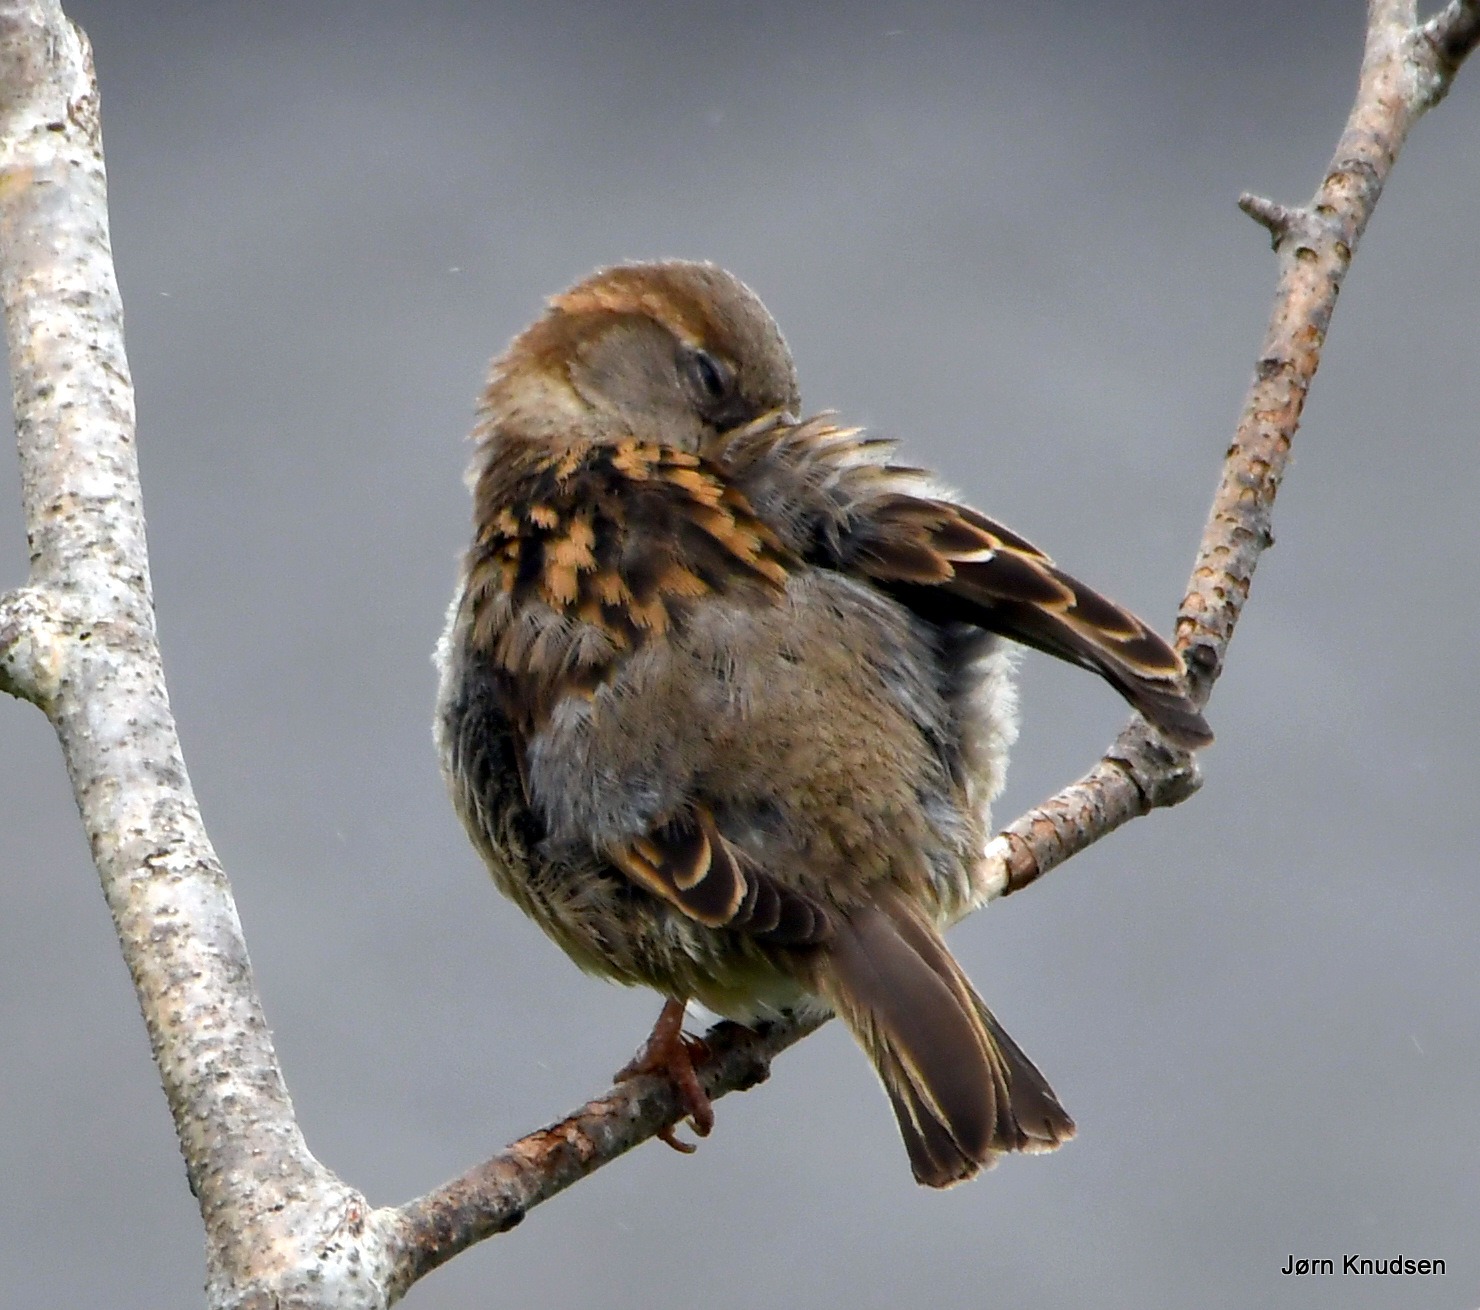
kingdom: Animalia
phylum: Chordata
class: Aves
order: Passeriformes
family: Passeridae
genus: Passer
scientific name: Passer domesticus
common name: Gråspurv
